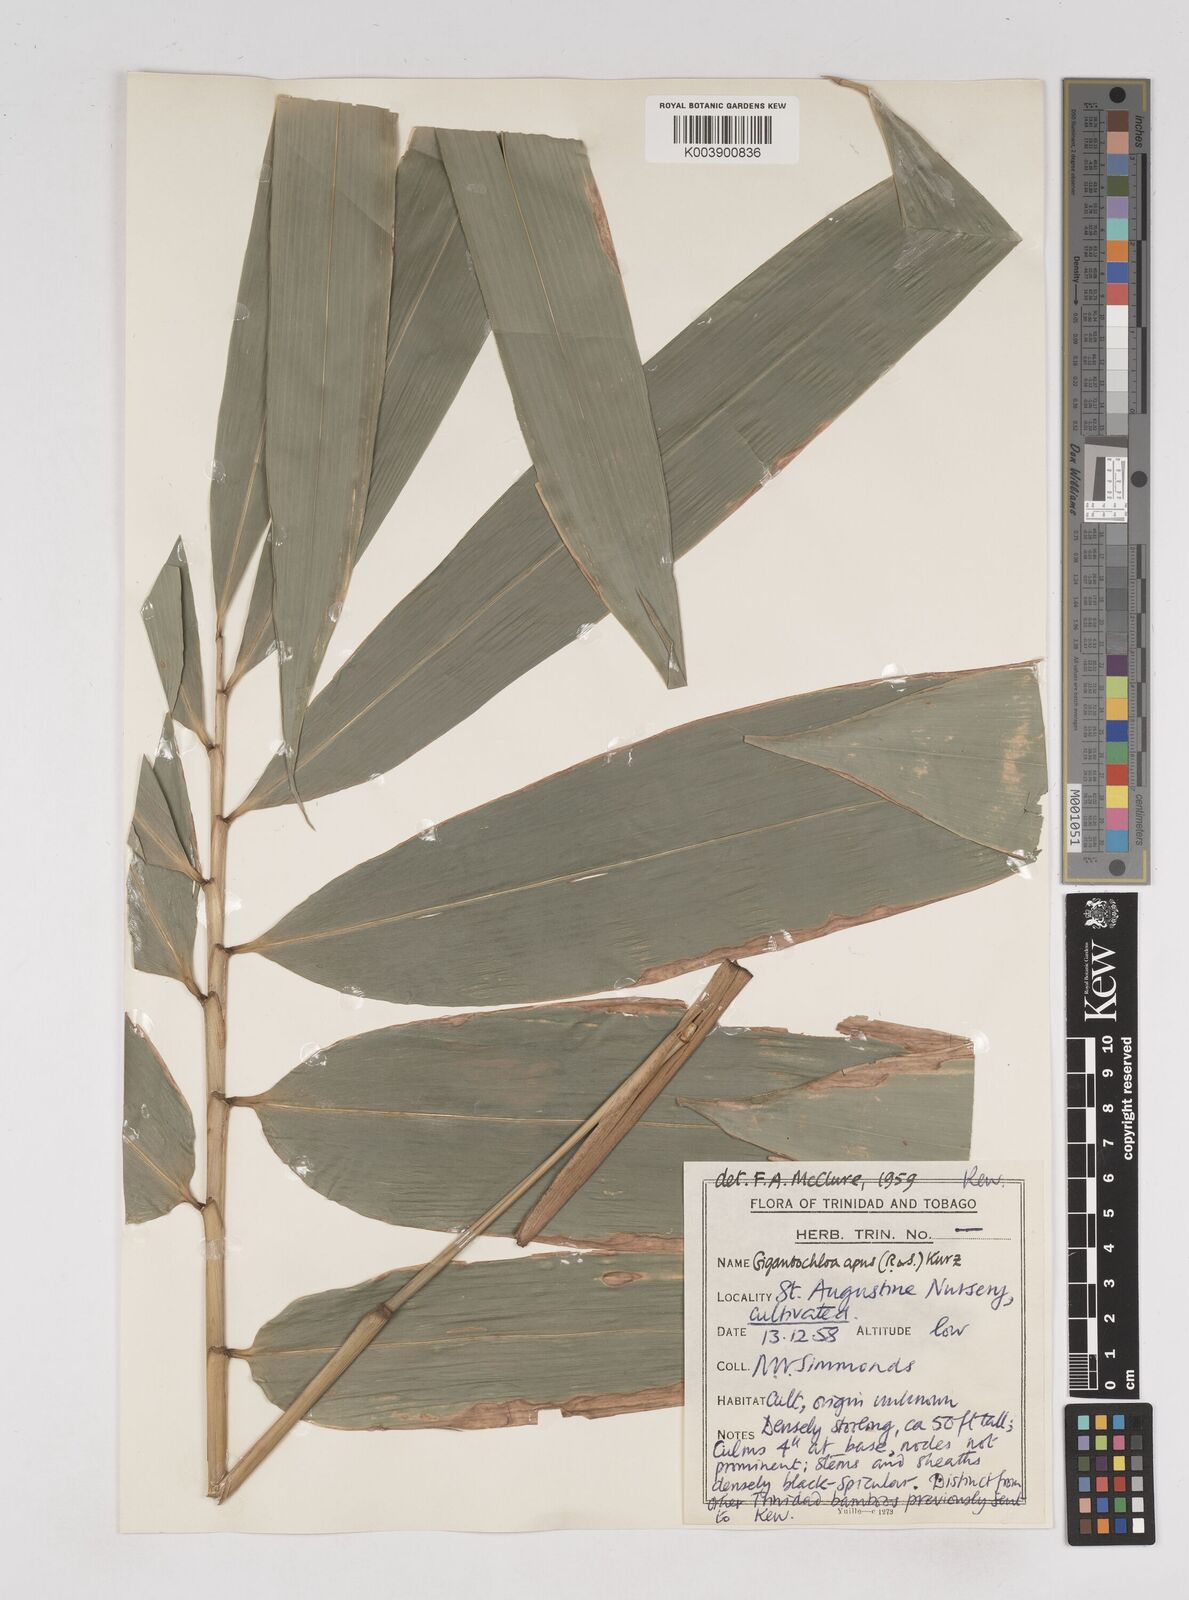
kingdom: Plantae
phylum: Tracheophyta
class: Liliopsida
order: Poales
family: Poaceae
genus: Gigantochloa
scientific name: Gigantochloa apus
